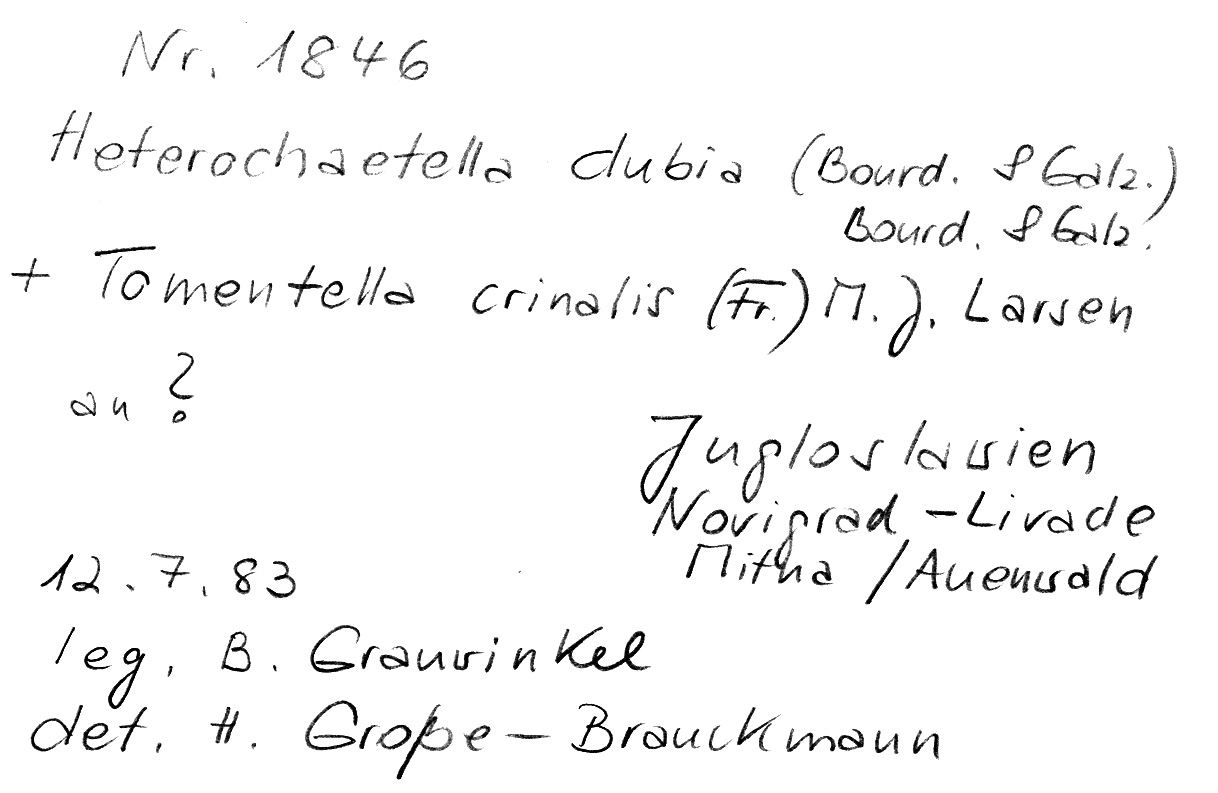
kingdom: Fungi
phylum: Basidiomycota
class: Agaricomycetes
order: Auriculariales
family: Hyaloriaceae
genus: Protomerulius
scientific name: Protomerulius dubius
